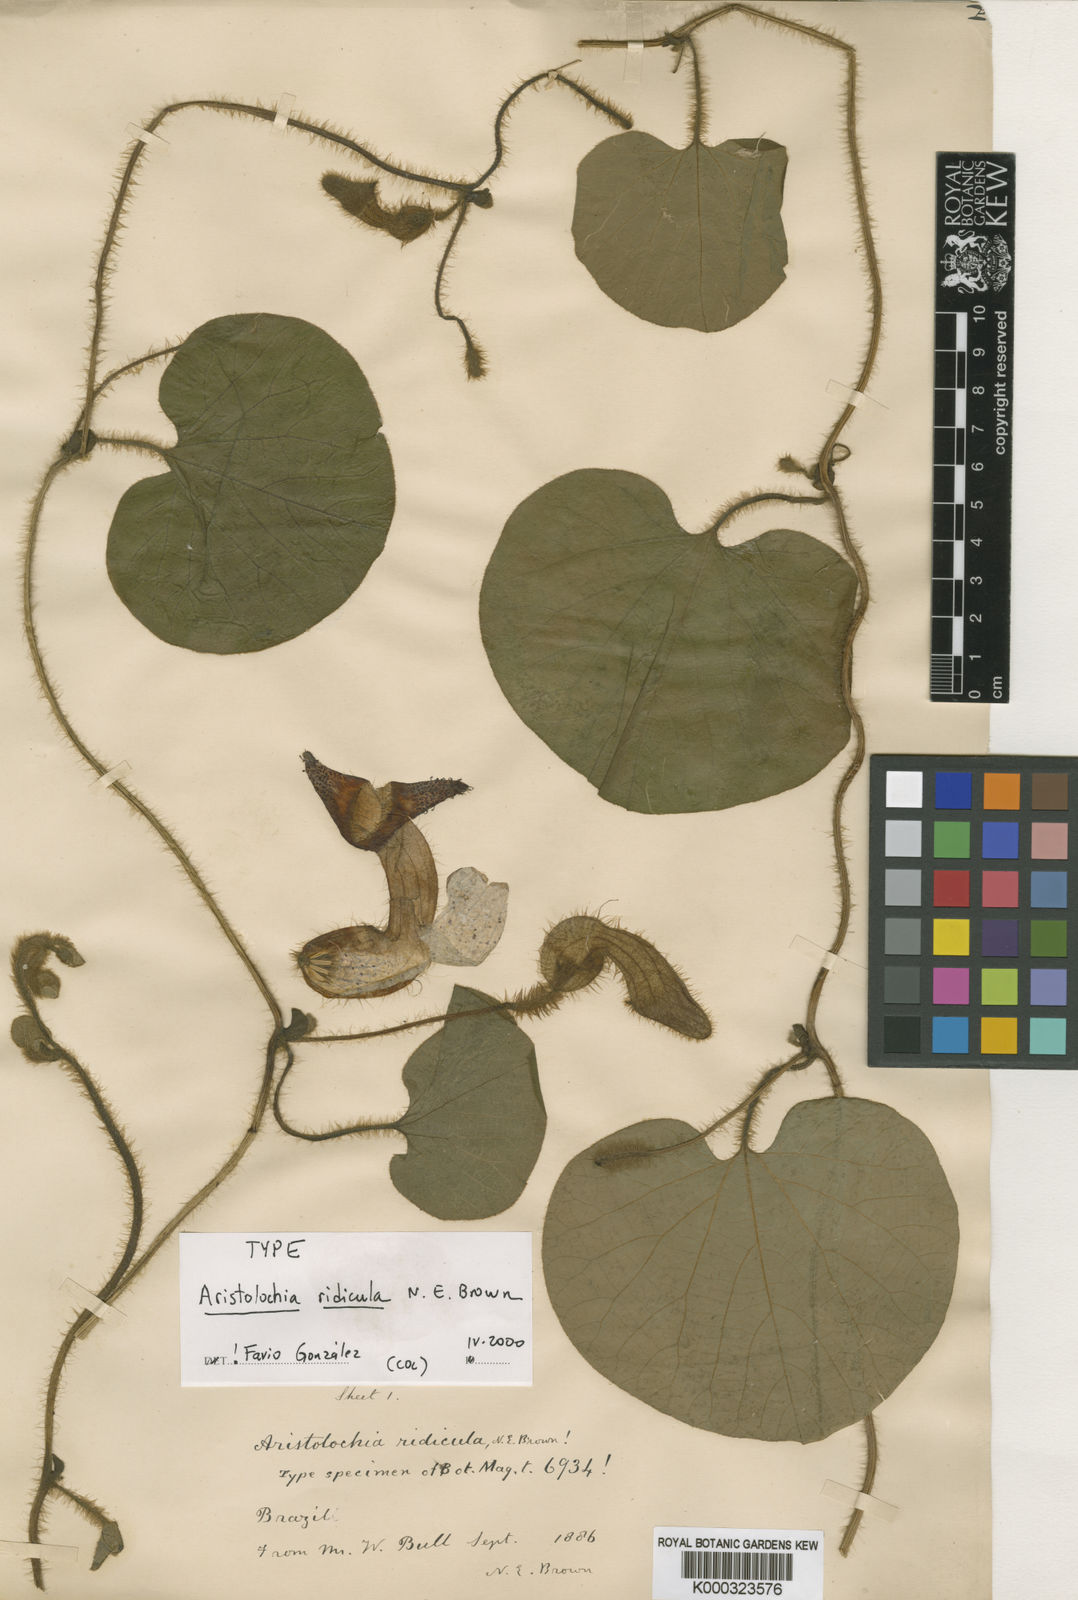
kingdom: Plantae
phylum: Tracheophyta
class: Magnoliopsida
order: Piperales
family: Aristolochiaceae
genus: Aristolochia
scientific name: Aristolochia ridicula
